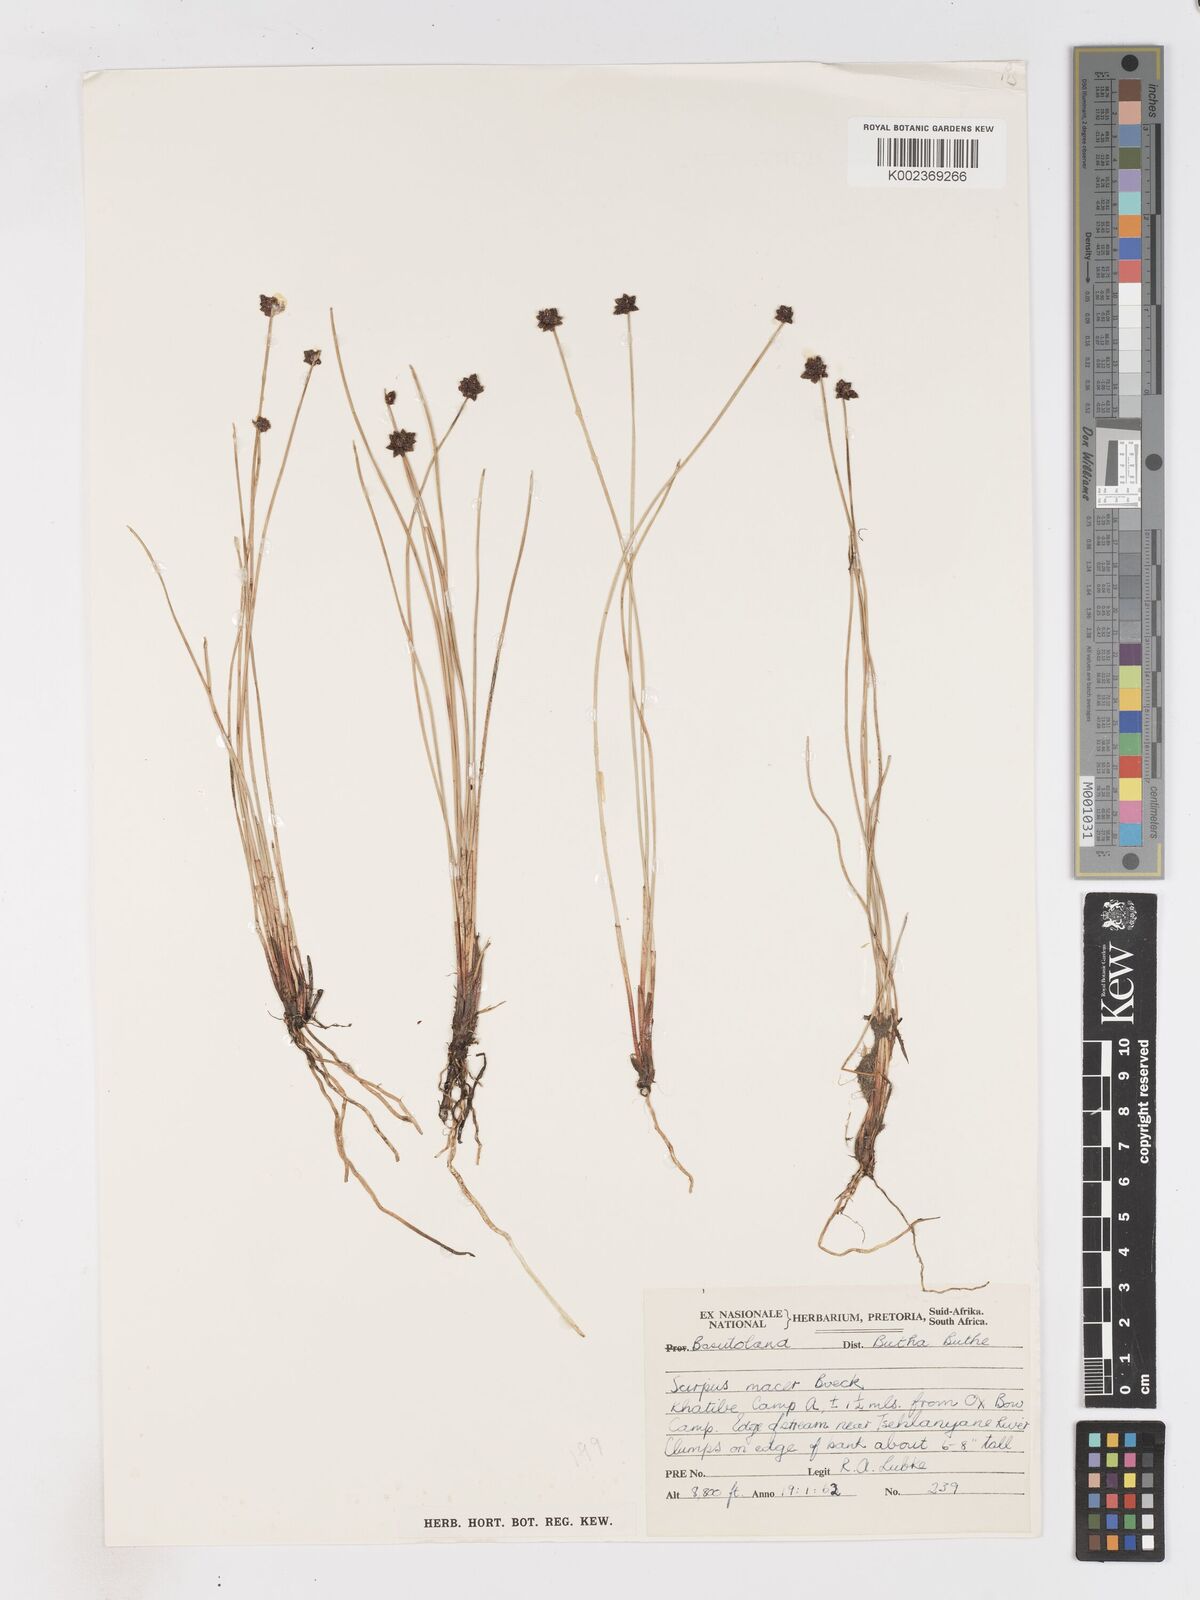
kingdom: Plantae
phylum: Tracheophyta
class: Liliopsida
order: Poales
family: Cyperaceae
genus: Isolepis
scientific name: Isolepis costata
